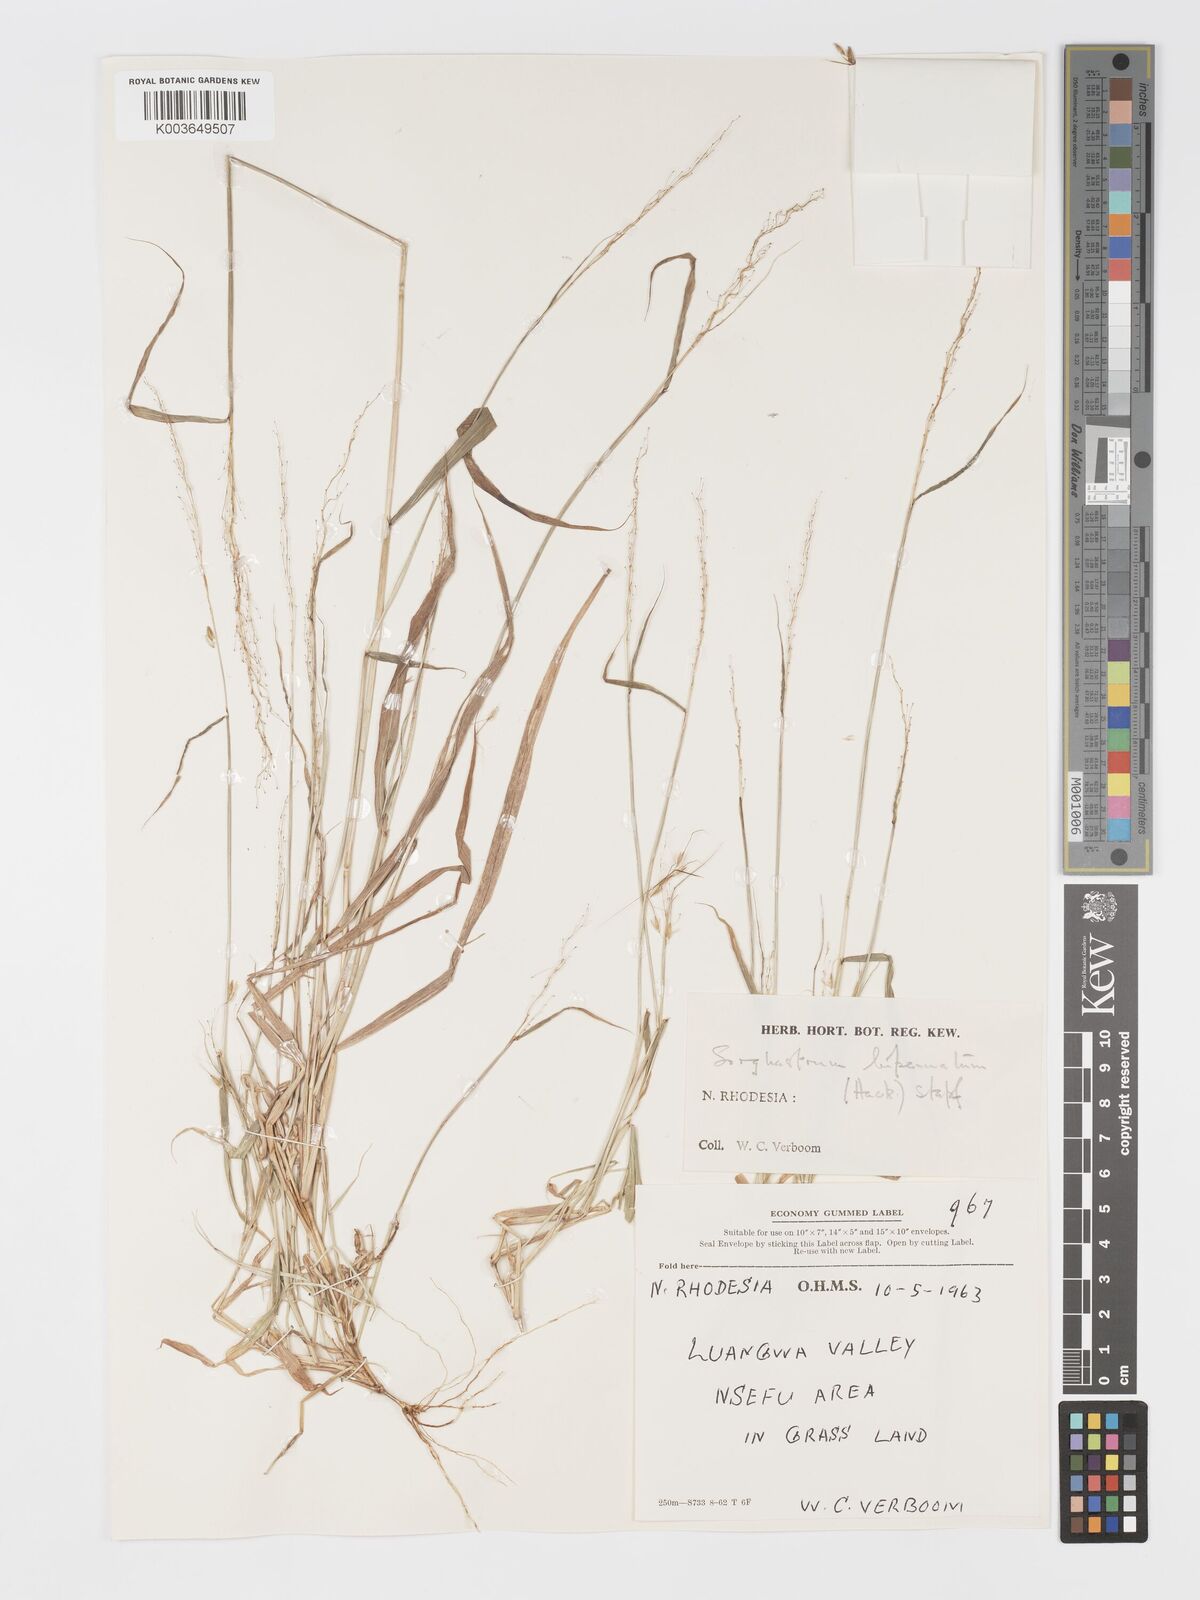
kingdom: Plantae
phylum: Tracheophyta
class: Liliopsida
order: Poales
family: Poaceae
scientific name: Poaceae
